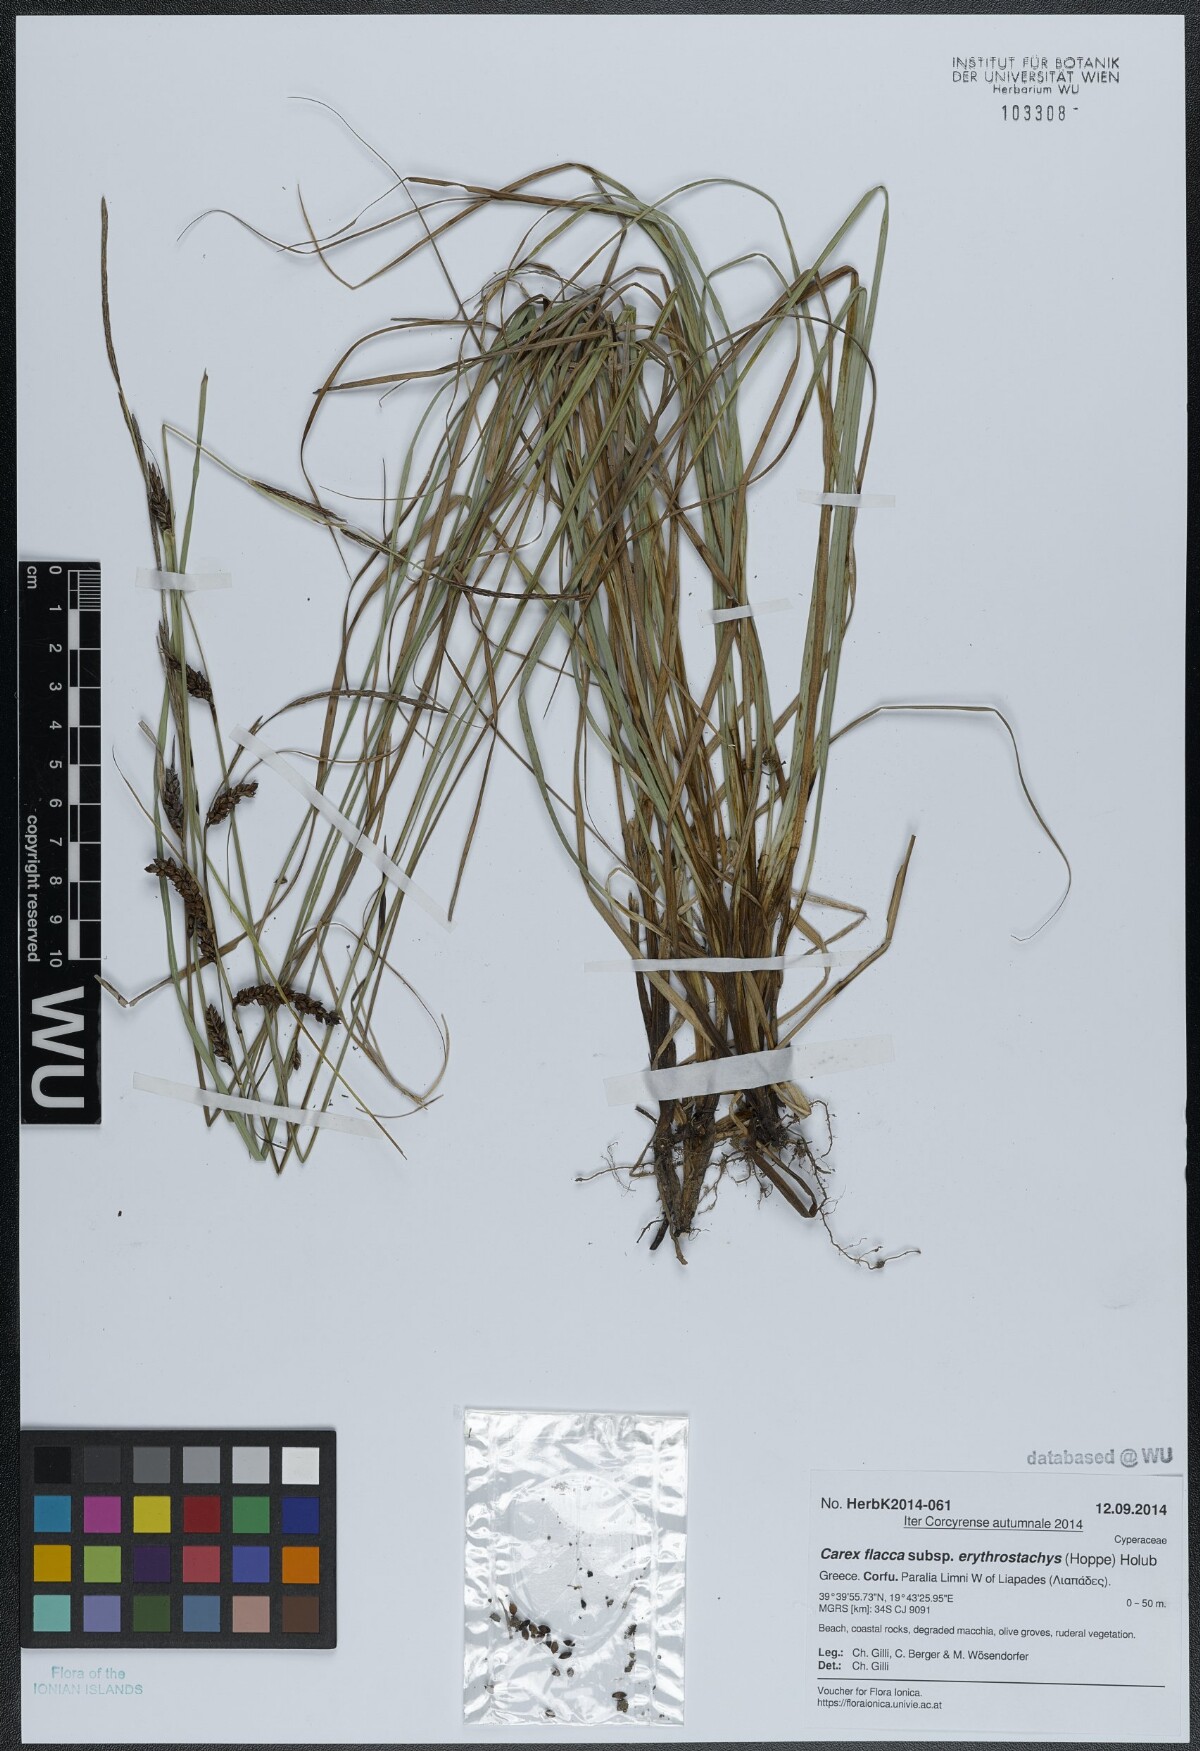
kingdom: Plantae
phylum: Tracheophyta
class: Liliopsida
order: Poales
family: Cyperaceae
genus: Carex
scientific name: Carex flacca
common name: Glaucous sedge
